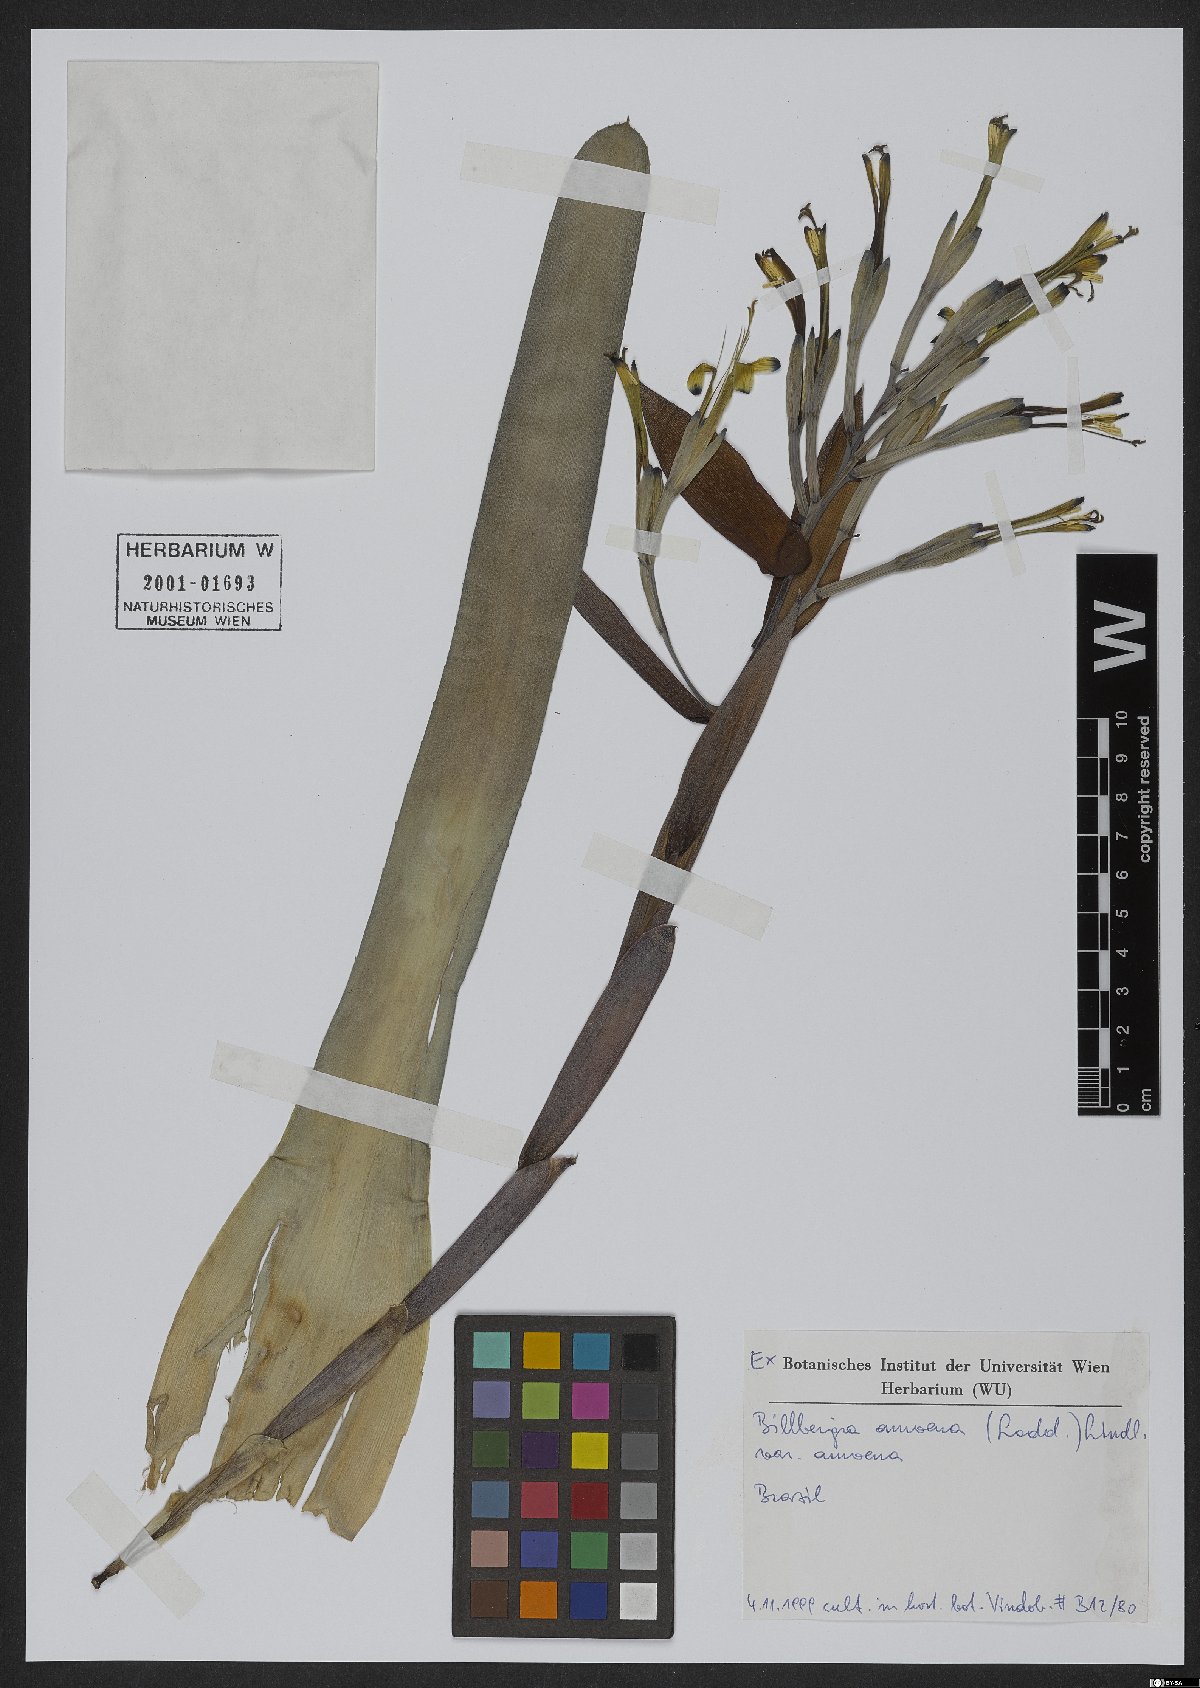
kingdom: Plantae
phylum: Tracheophyta
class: Liliopsida
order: Poales
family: Bromeliaceae
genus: Billbergia
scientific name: Billbergia amoena
